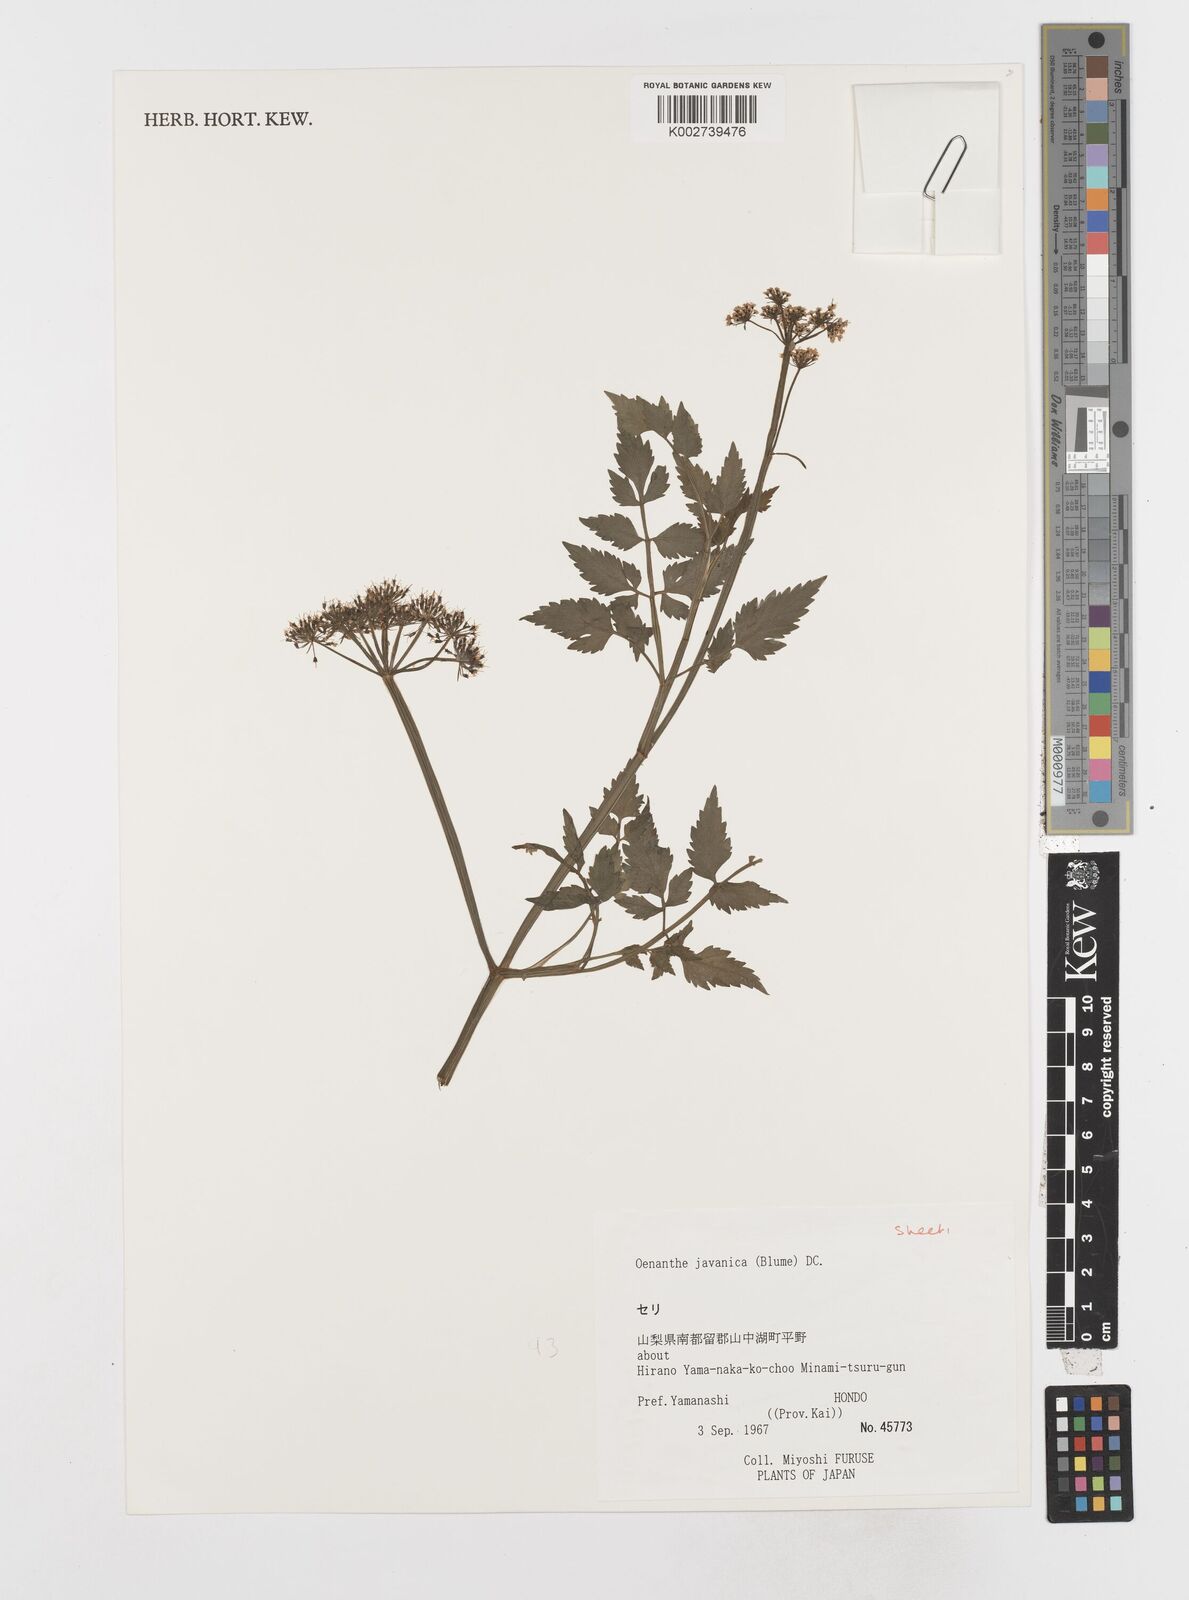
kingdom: Plantae
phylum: Tracheophyta
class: Magnoliopsida
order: Apiales
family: Apiaceae
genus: Oenanthe
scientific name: Oenanthe javanica
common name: Java water-dropwort
